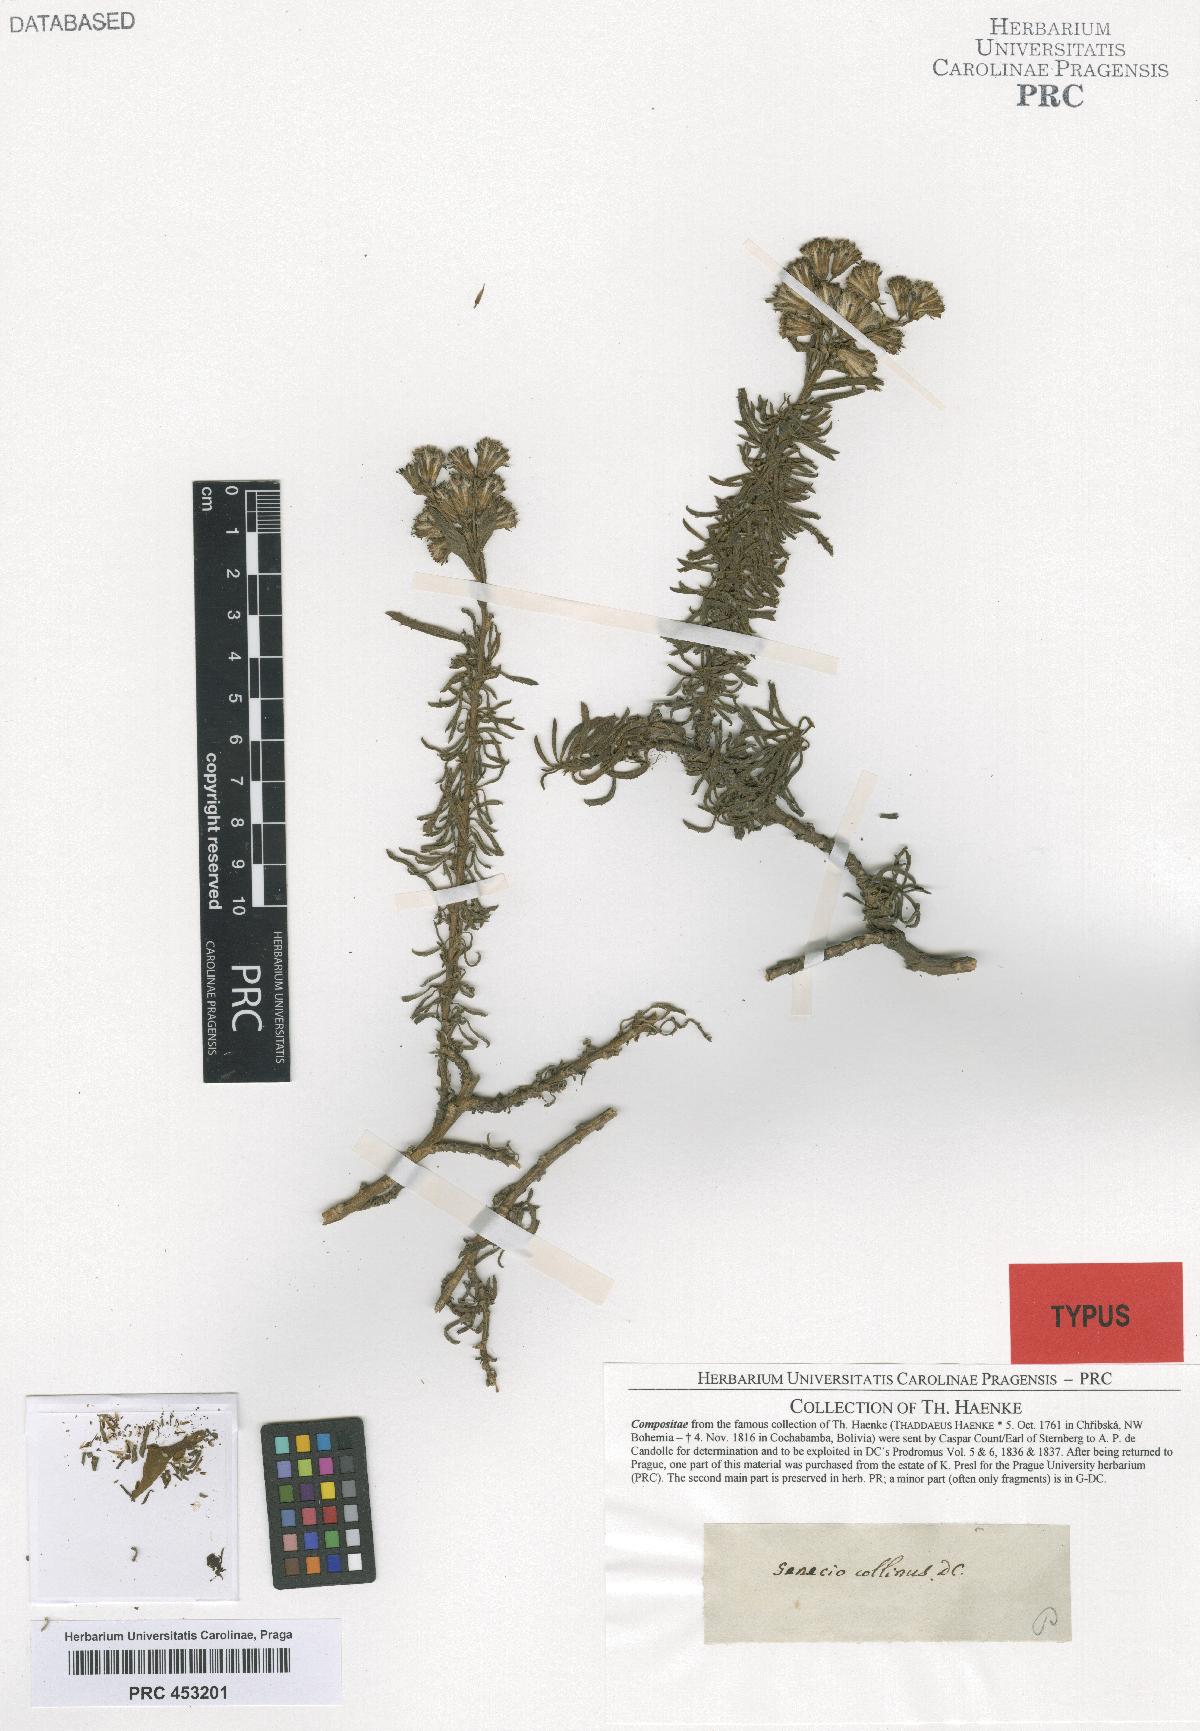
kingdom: Plantae
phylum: Tracheophyta
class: Magnoliopsida
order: Asterales
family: Asteraceae
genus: Senecio
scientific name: Senecio collinus
